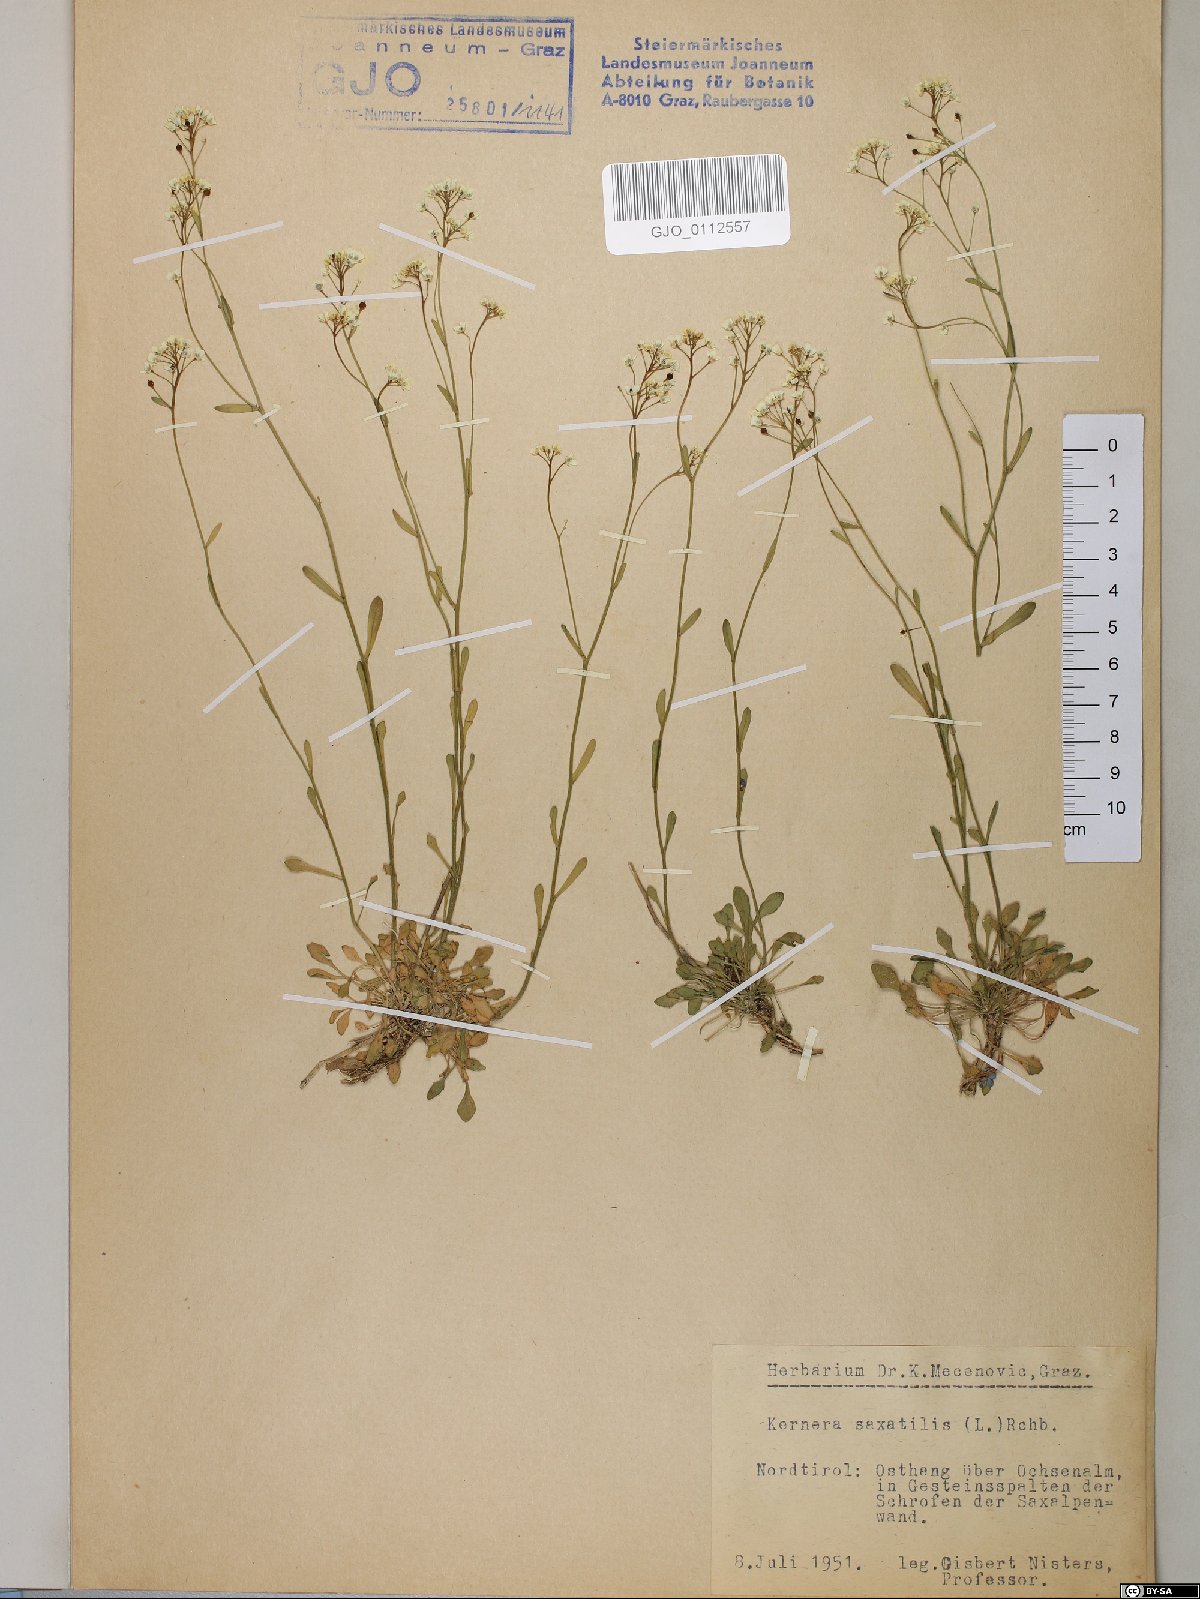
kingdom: Plantae
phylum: Tracheophyta
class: Magnoliopsida
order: Brassicales
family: Brassicaceae
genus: Kernera
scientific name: Kernera saxatilis
